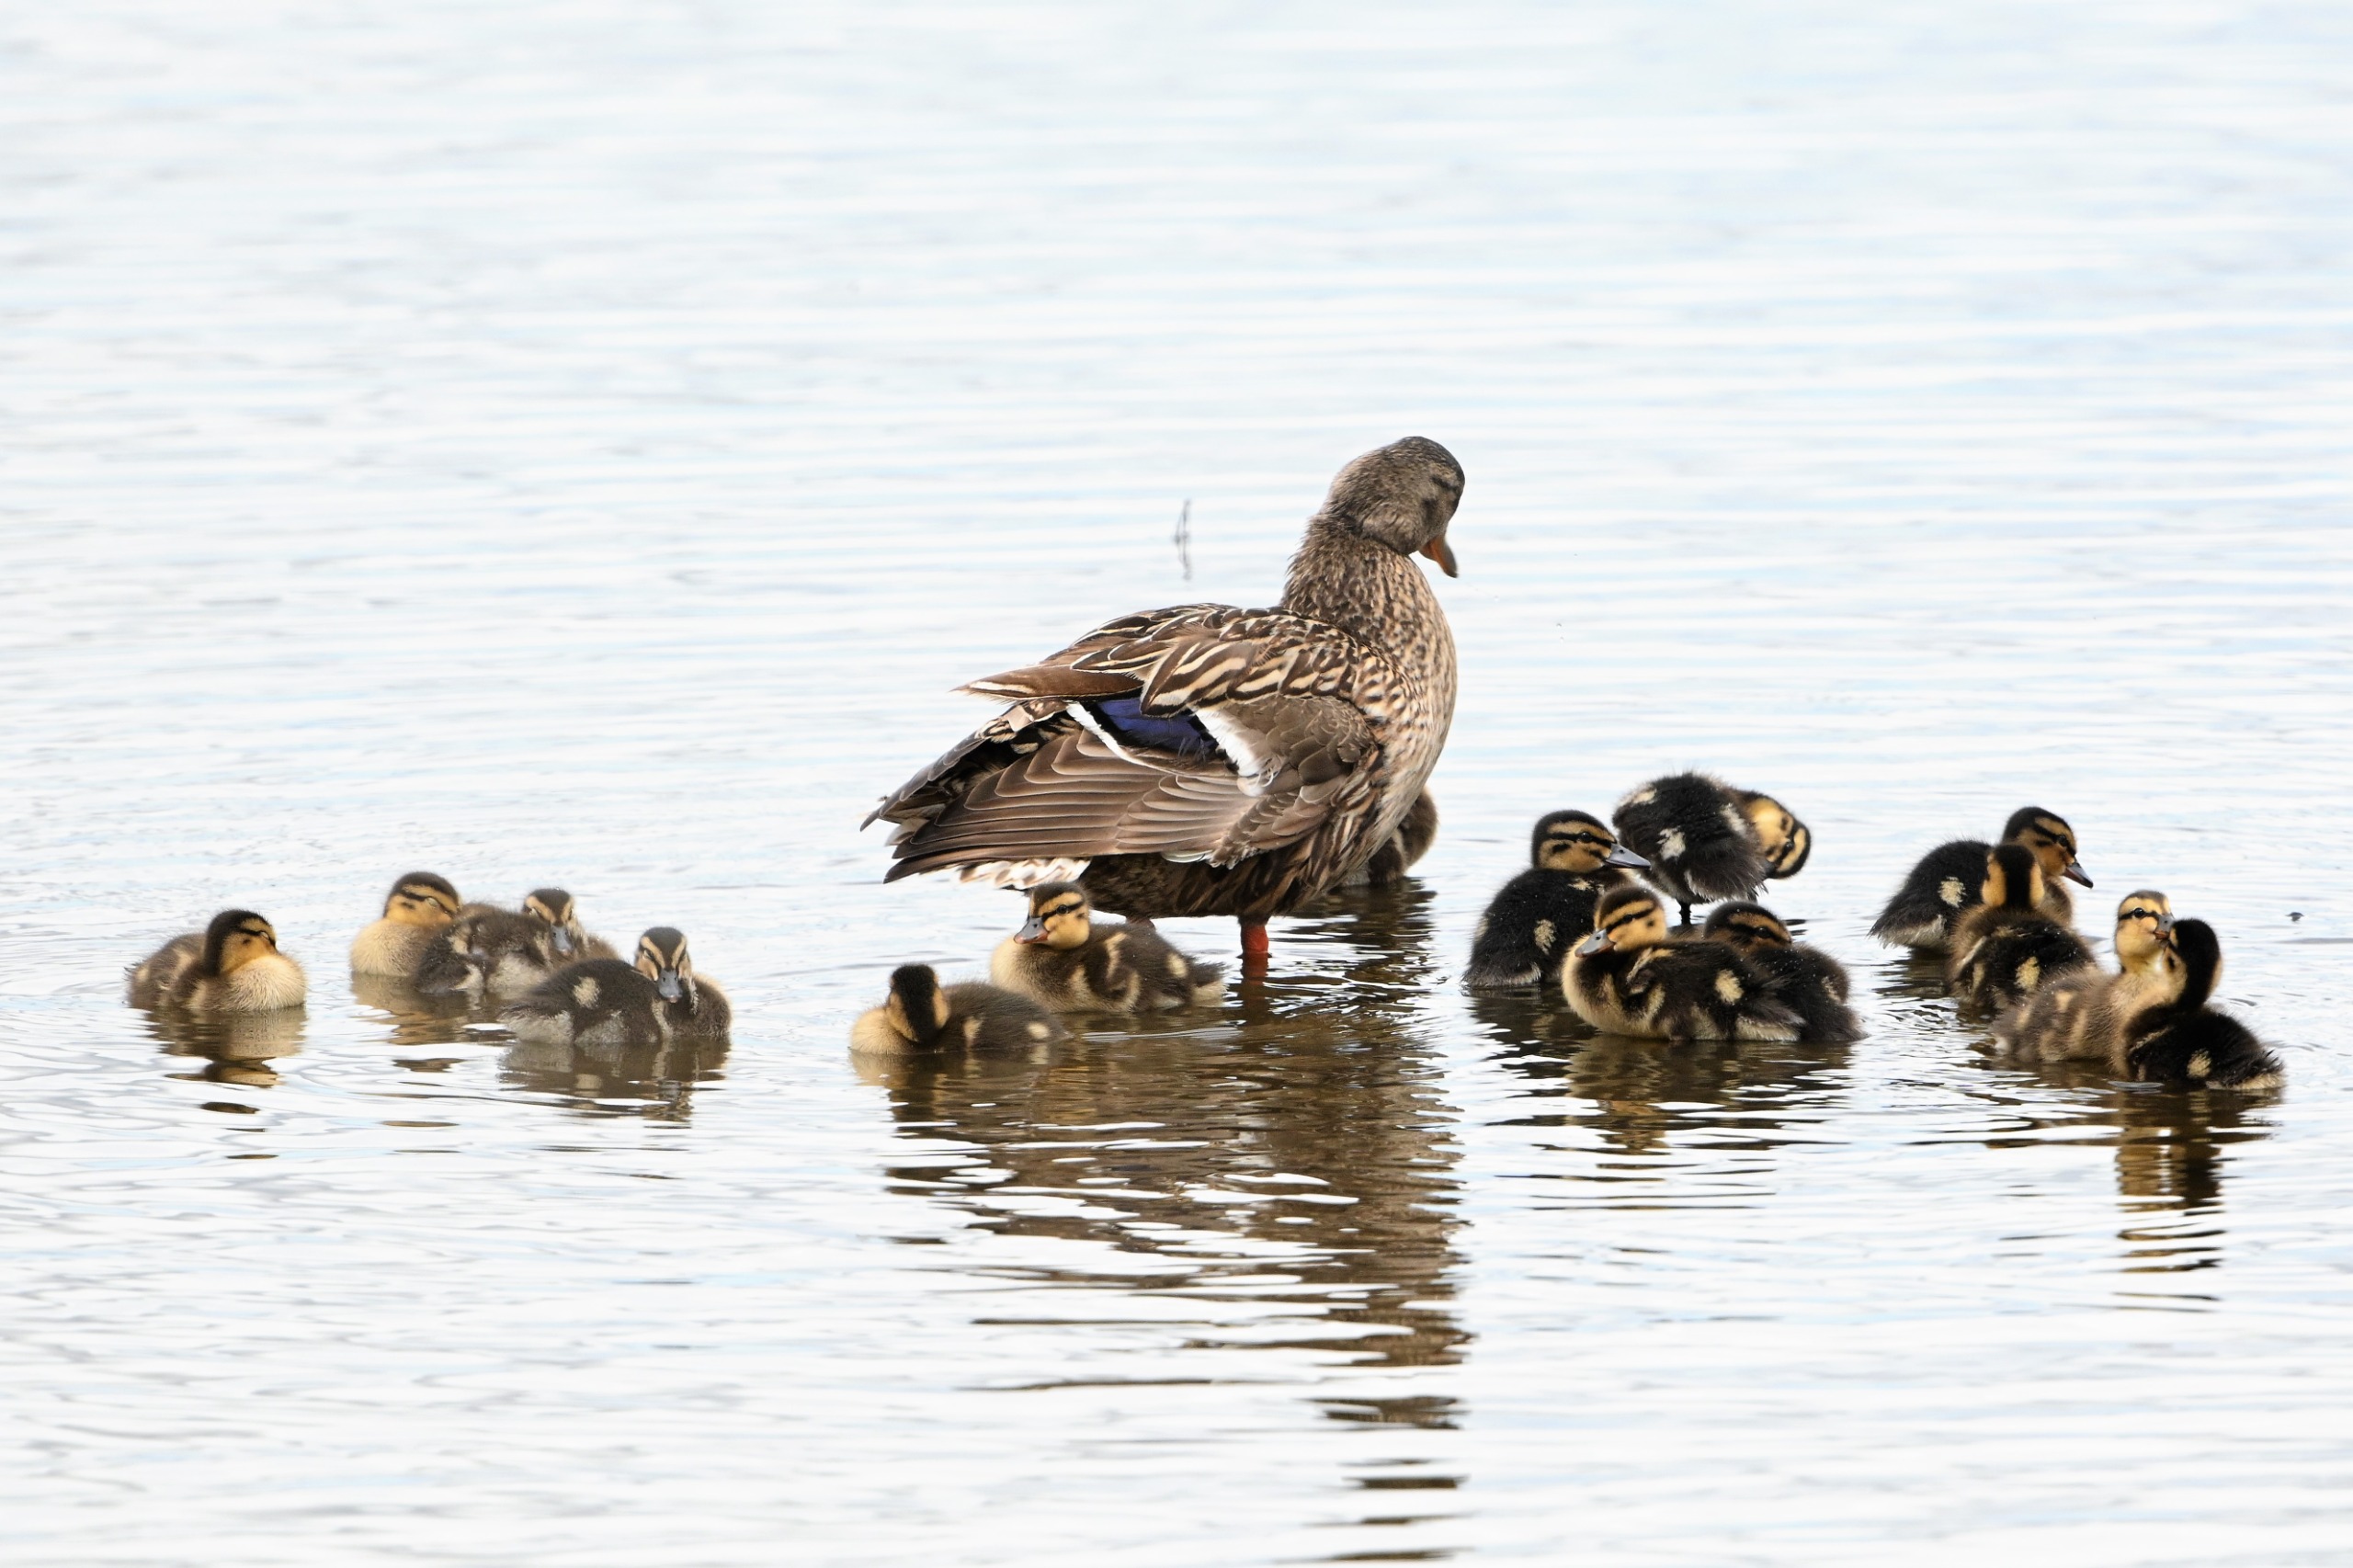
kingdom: Animalia
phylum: Chordata
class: Aves
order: Anseriformes
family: Anatidae
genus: Anas
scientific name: Anas platyrhynchos
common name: Gråand
